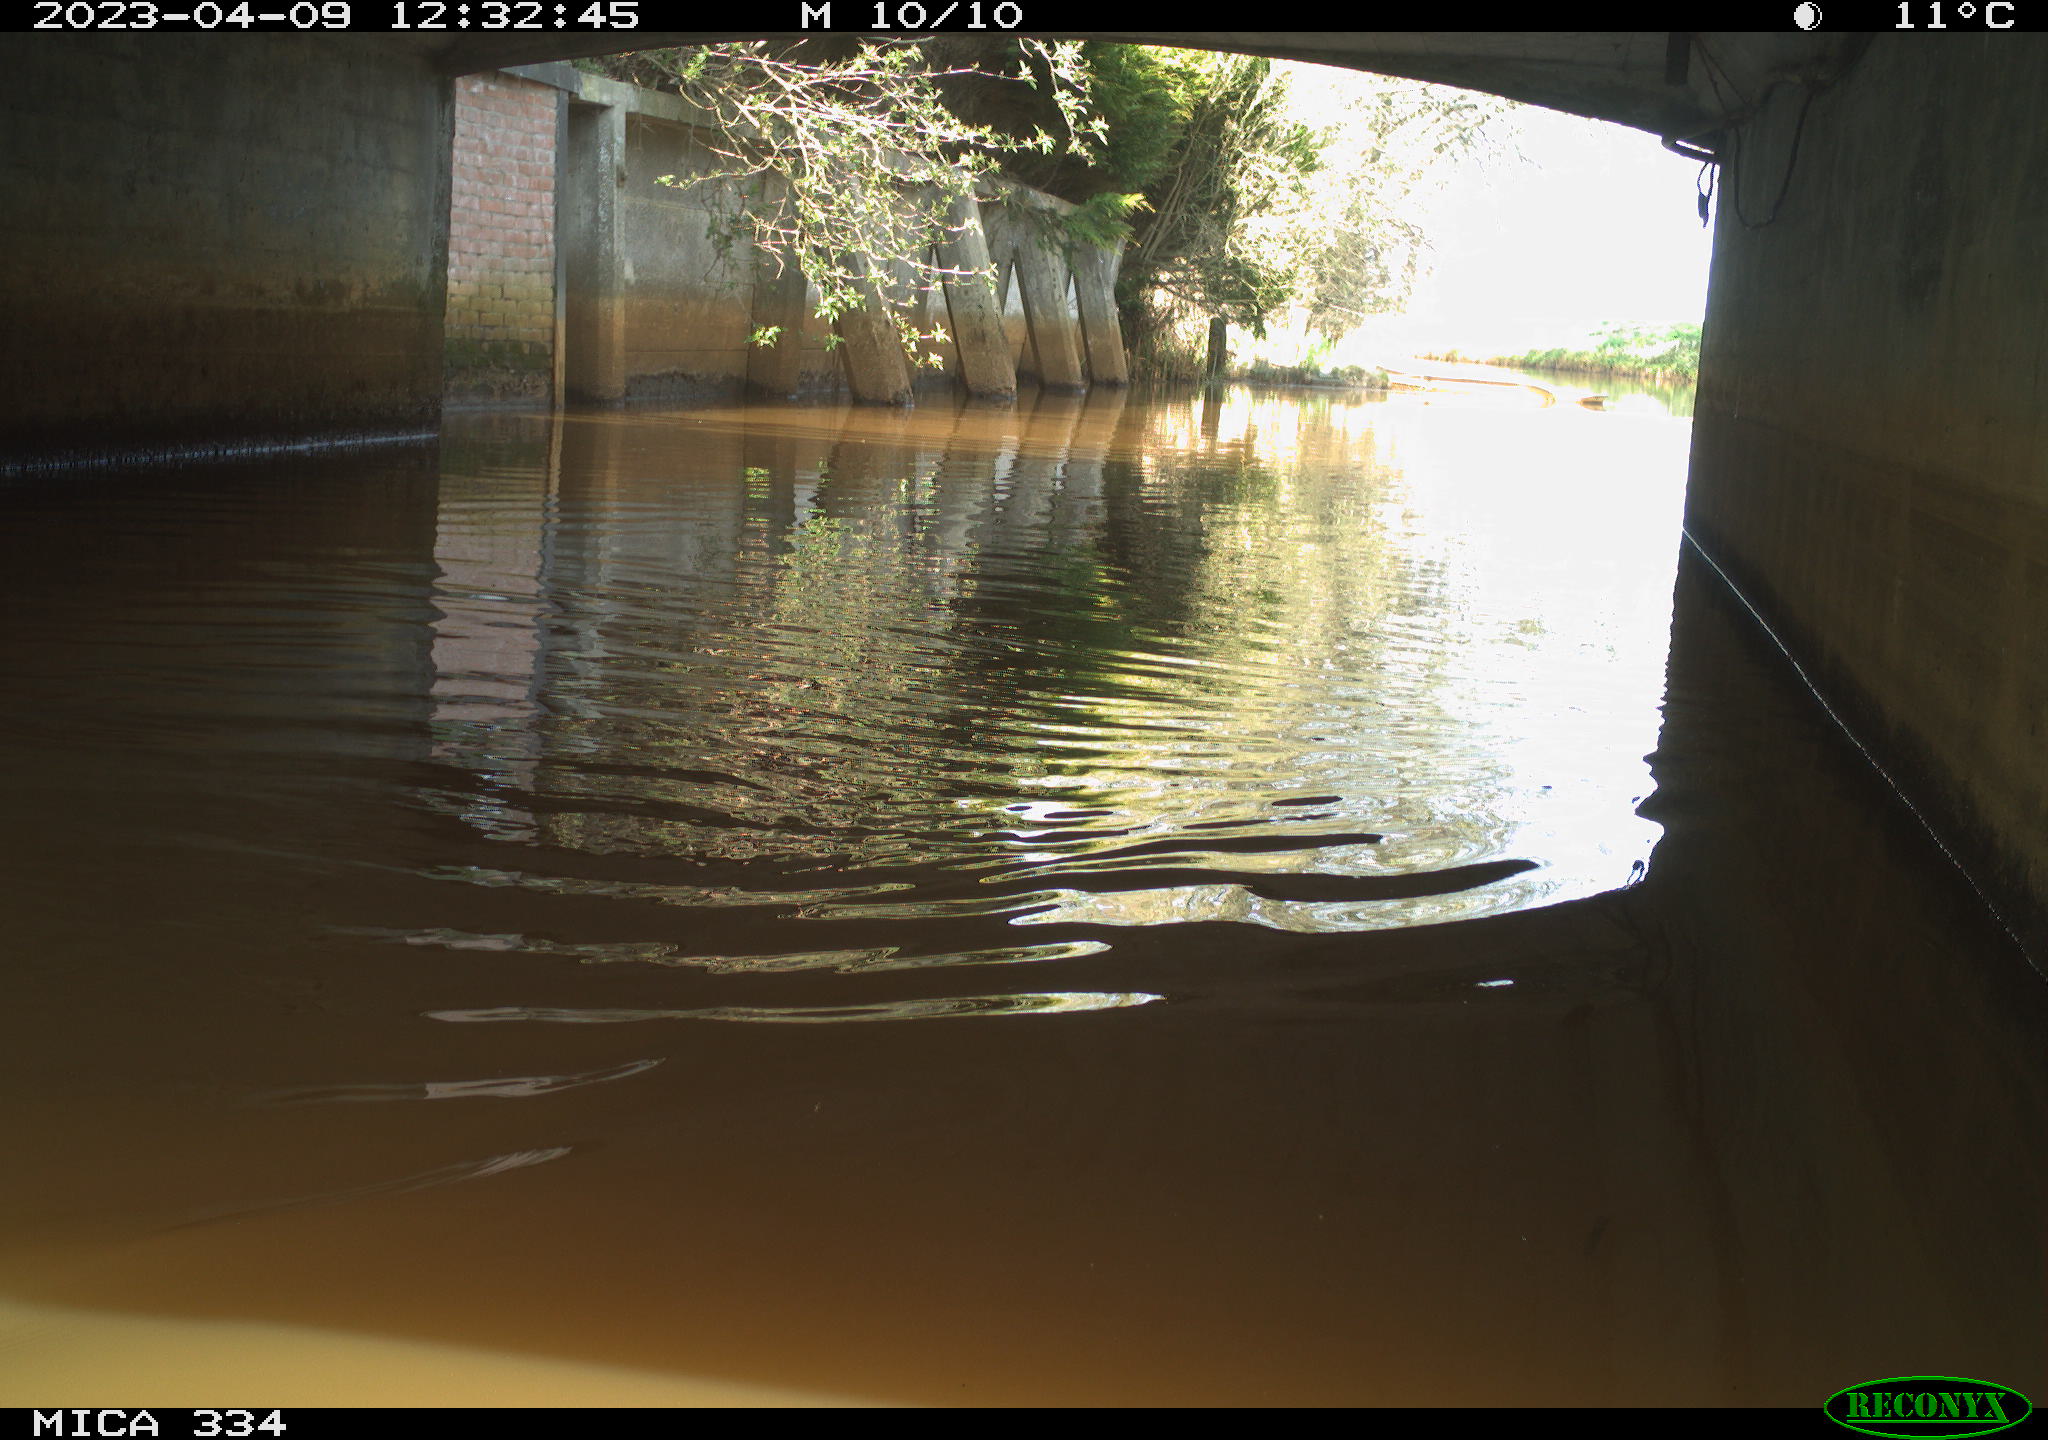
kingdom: Animalia
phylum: Chordata
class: Aves
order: Anseriformes
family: Anatidae
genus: Anas
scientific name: Anas platyrhynchos
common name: Mallard
